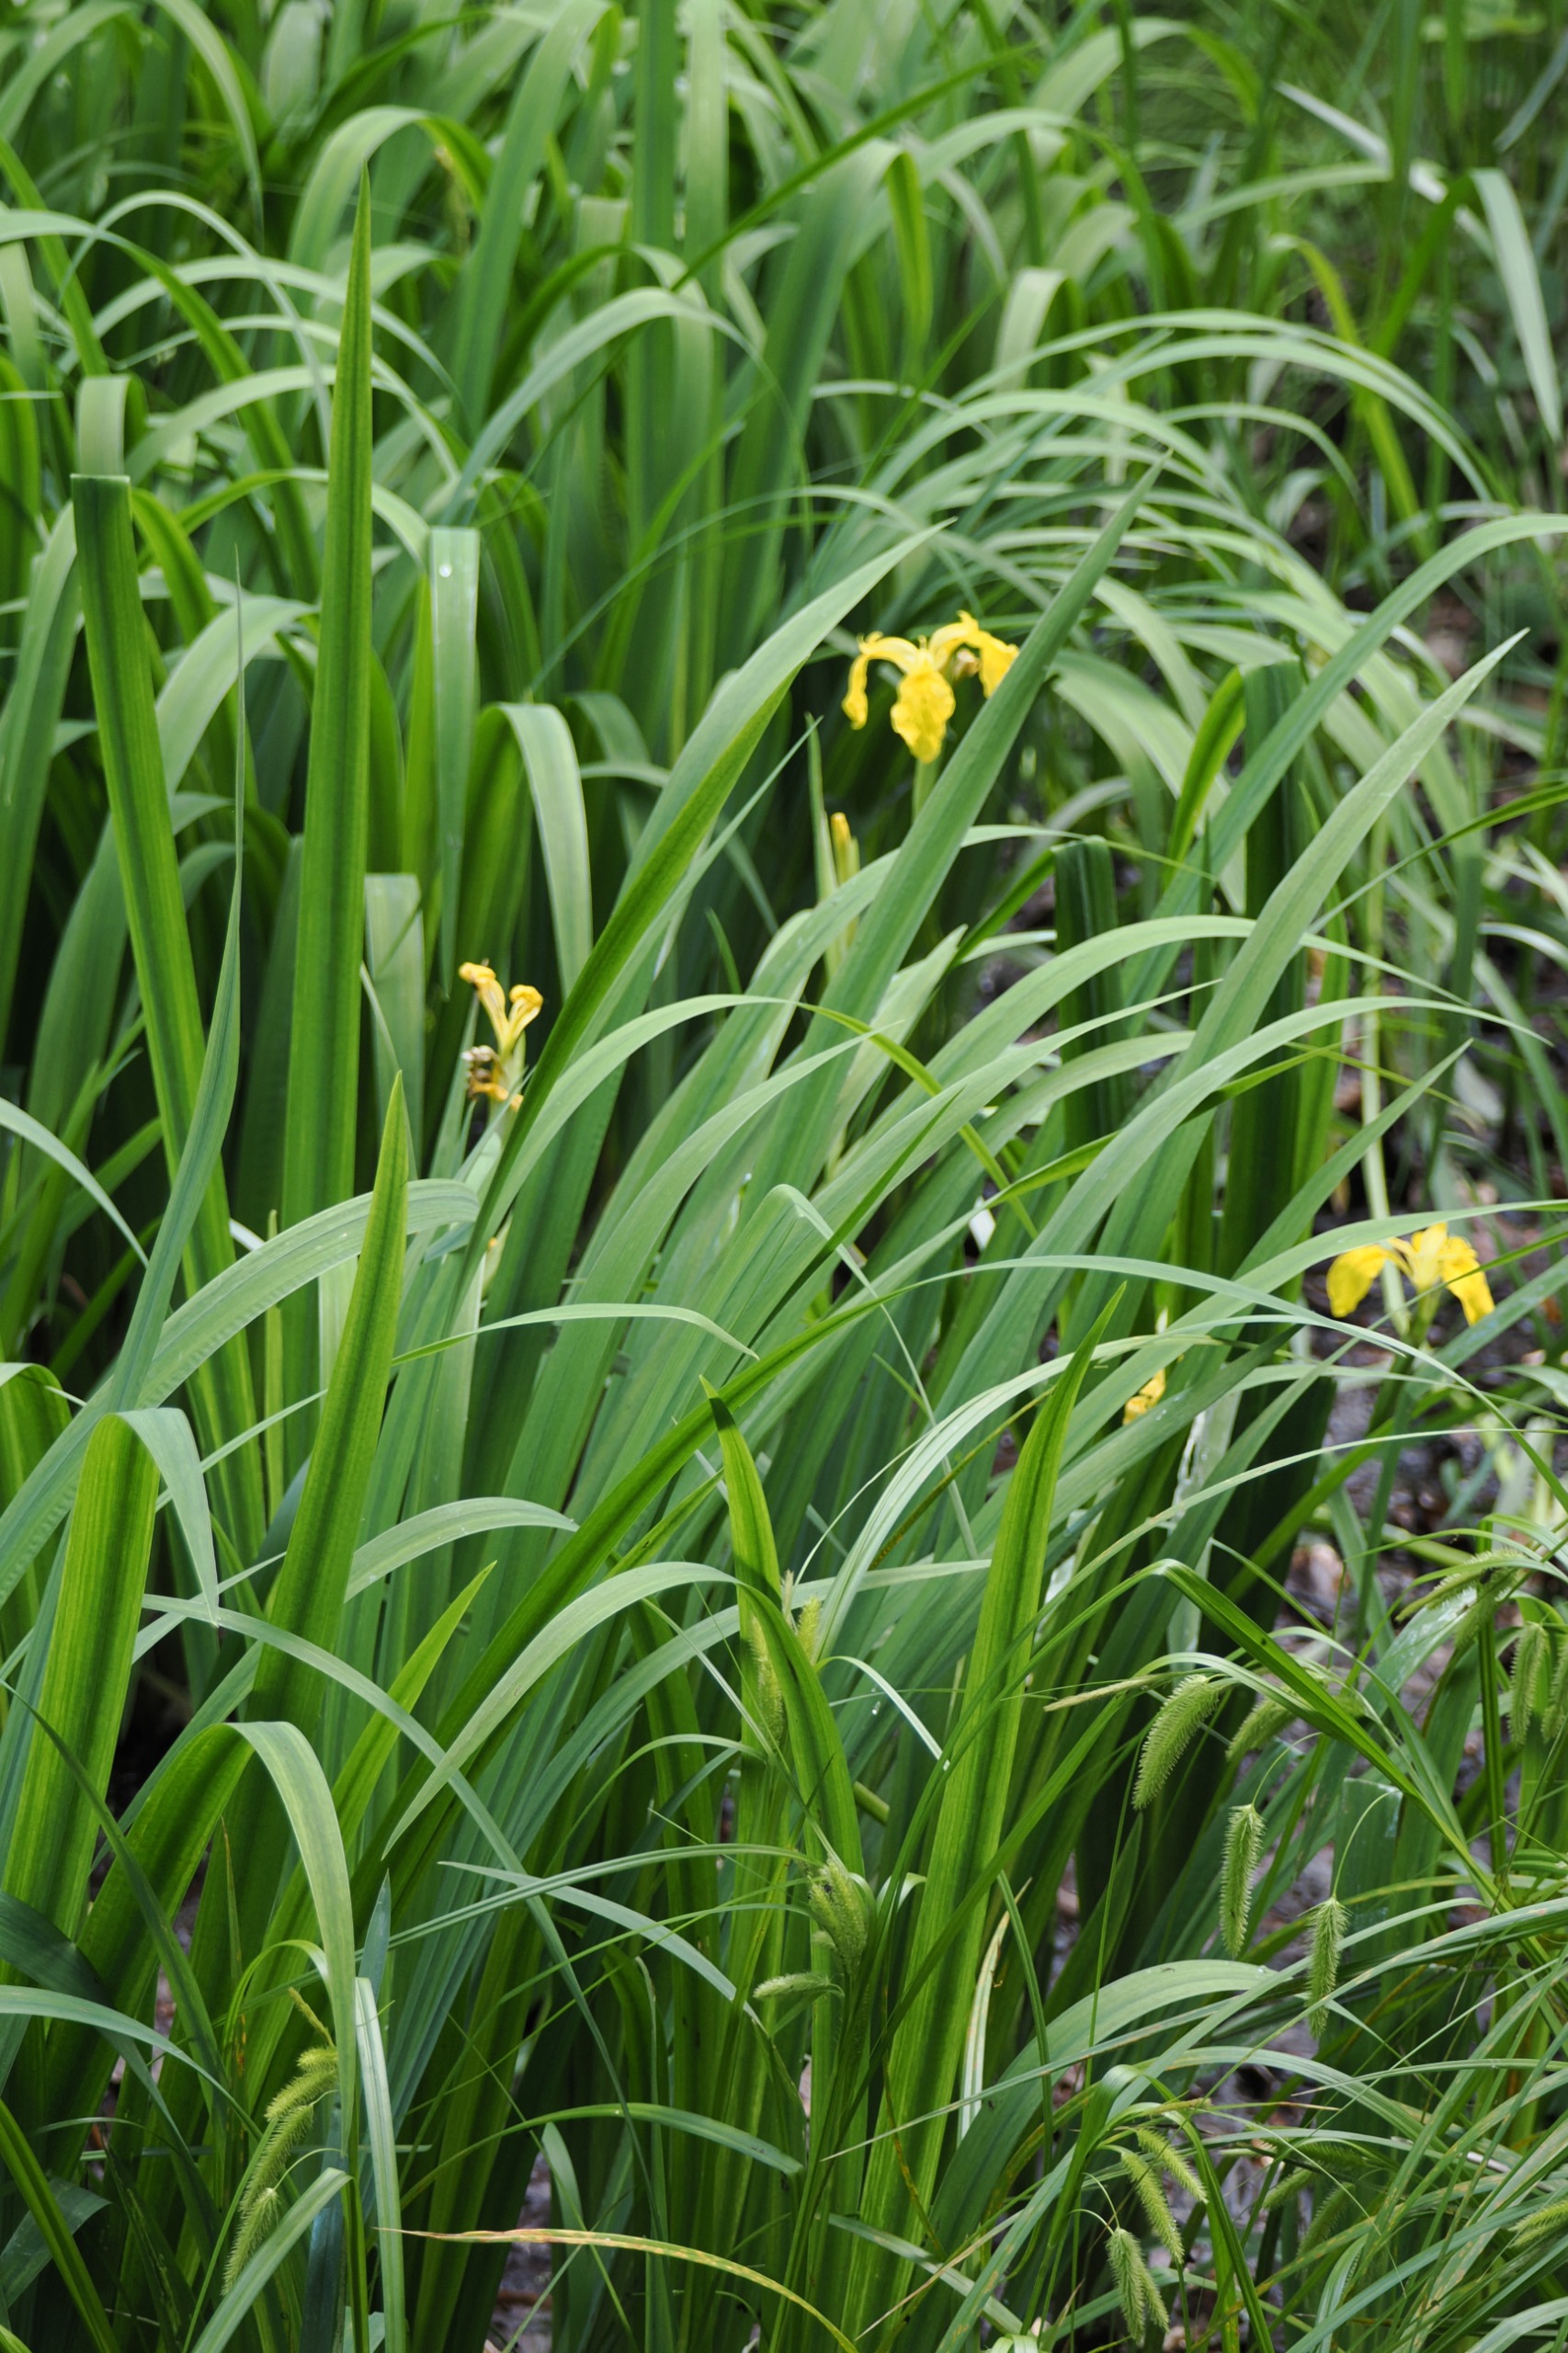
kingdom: Plantae
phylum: Tracheophyta
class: Liliopsida
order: Asparagales
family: Iridaceae
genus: Iris
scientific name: Iris pseudacorus
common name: Gul iris
